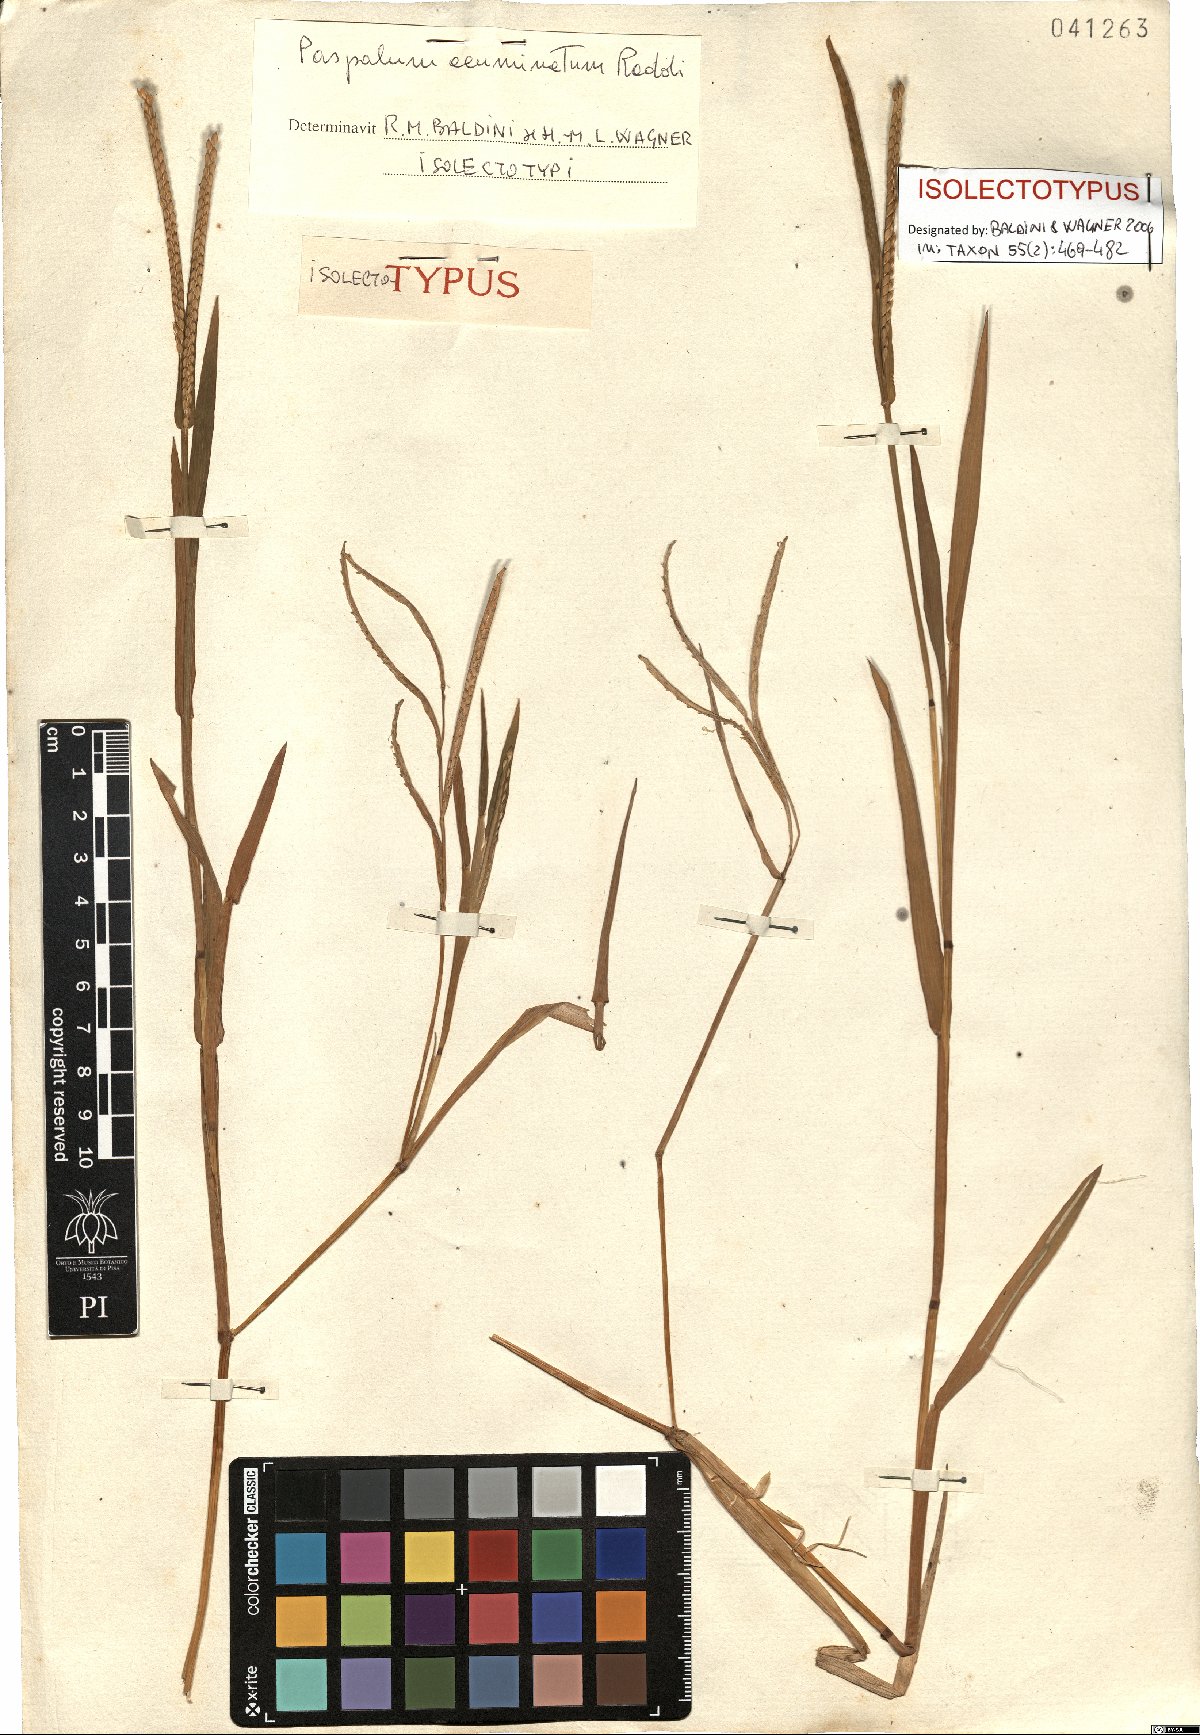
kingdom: Plantae
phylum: Tracheophyta
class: Liliopsida
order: Poales
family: Poaceae
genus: Paspalum
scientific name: Paspalum acuminatum
